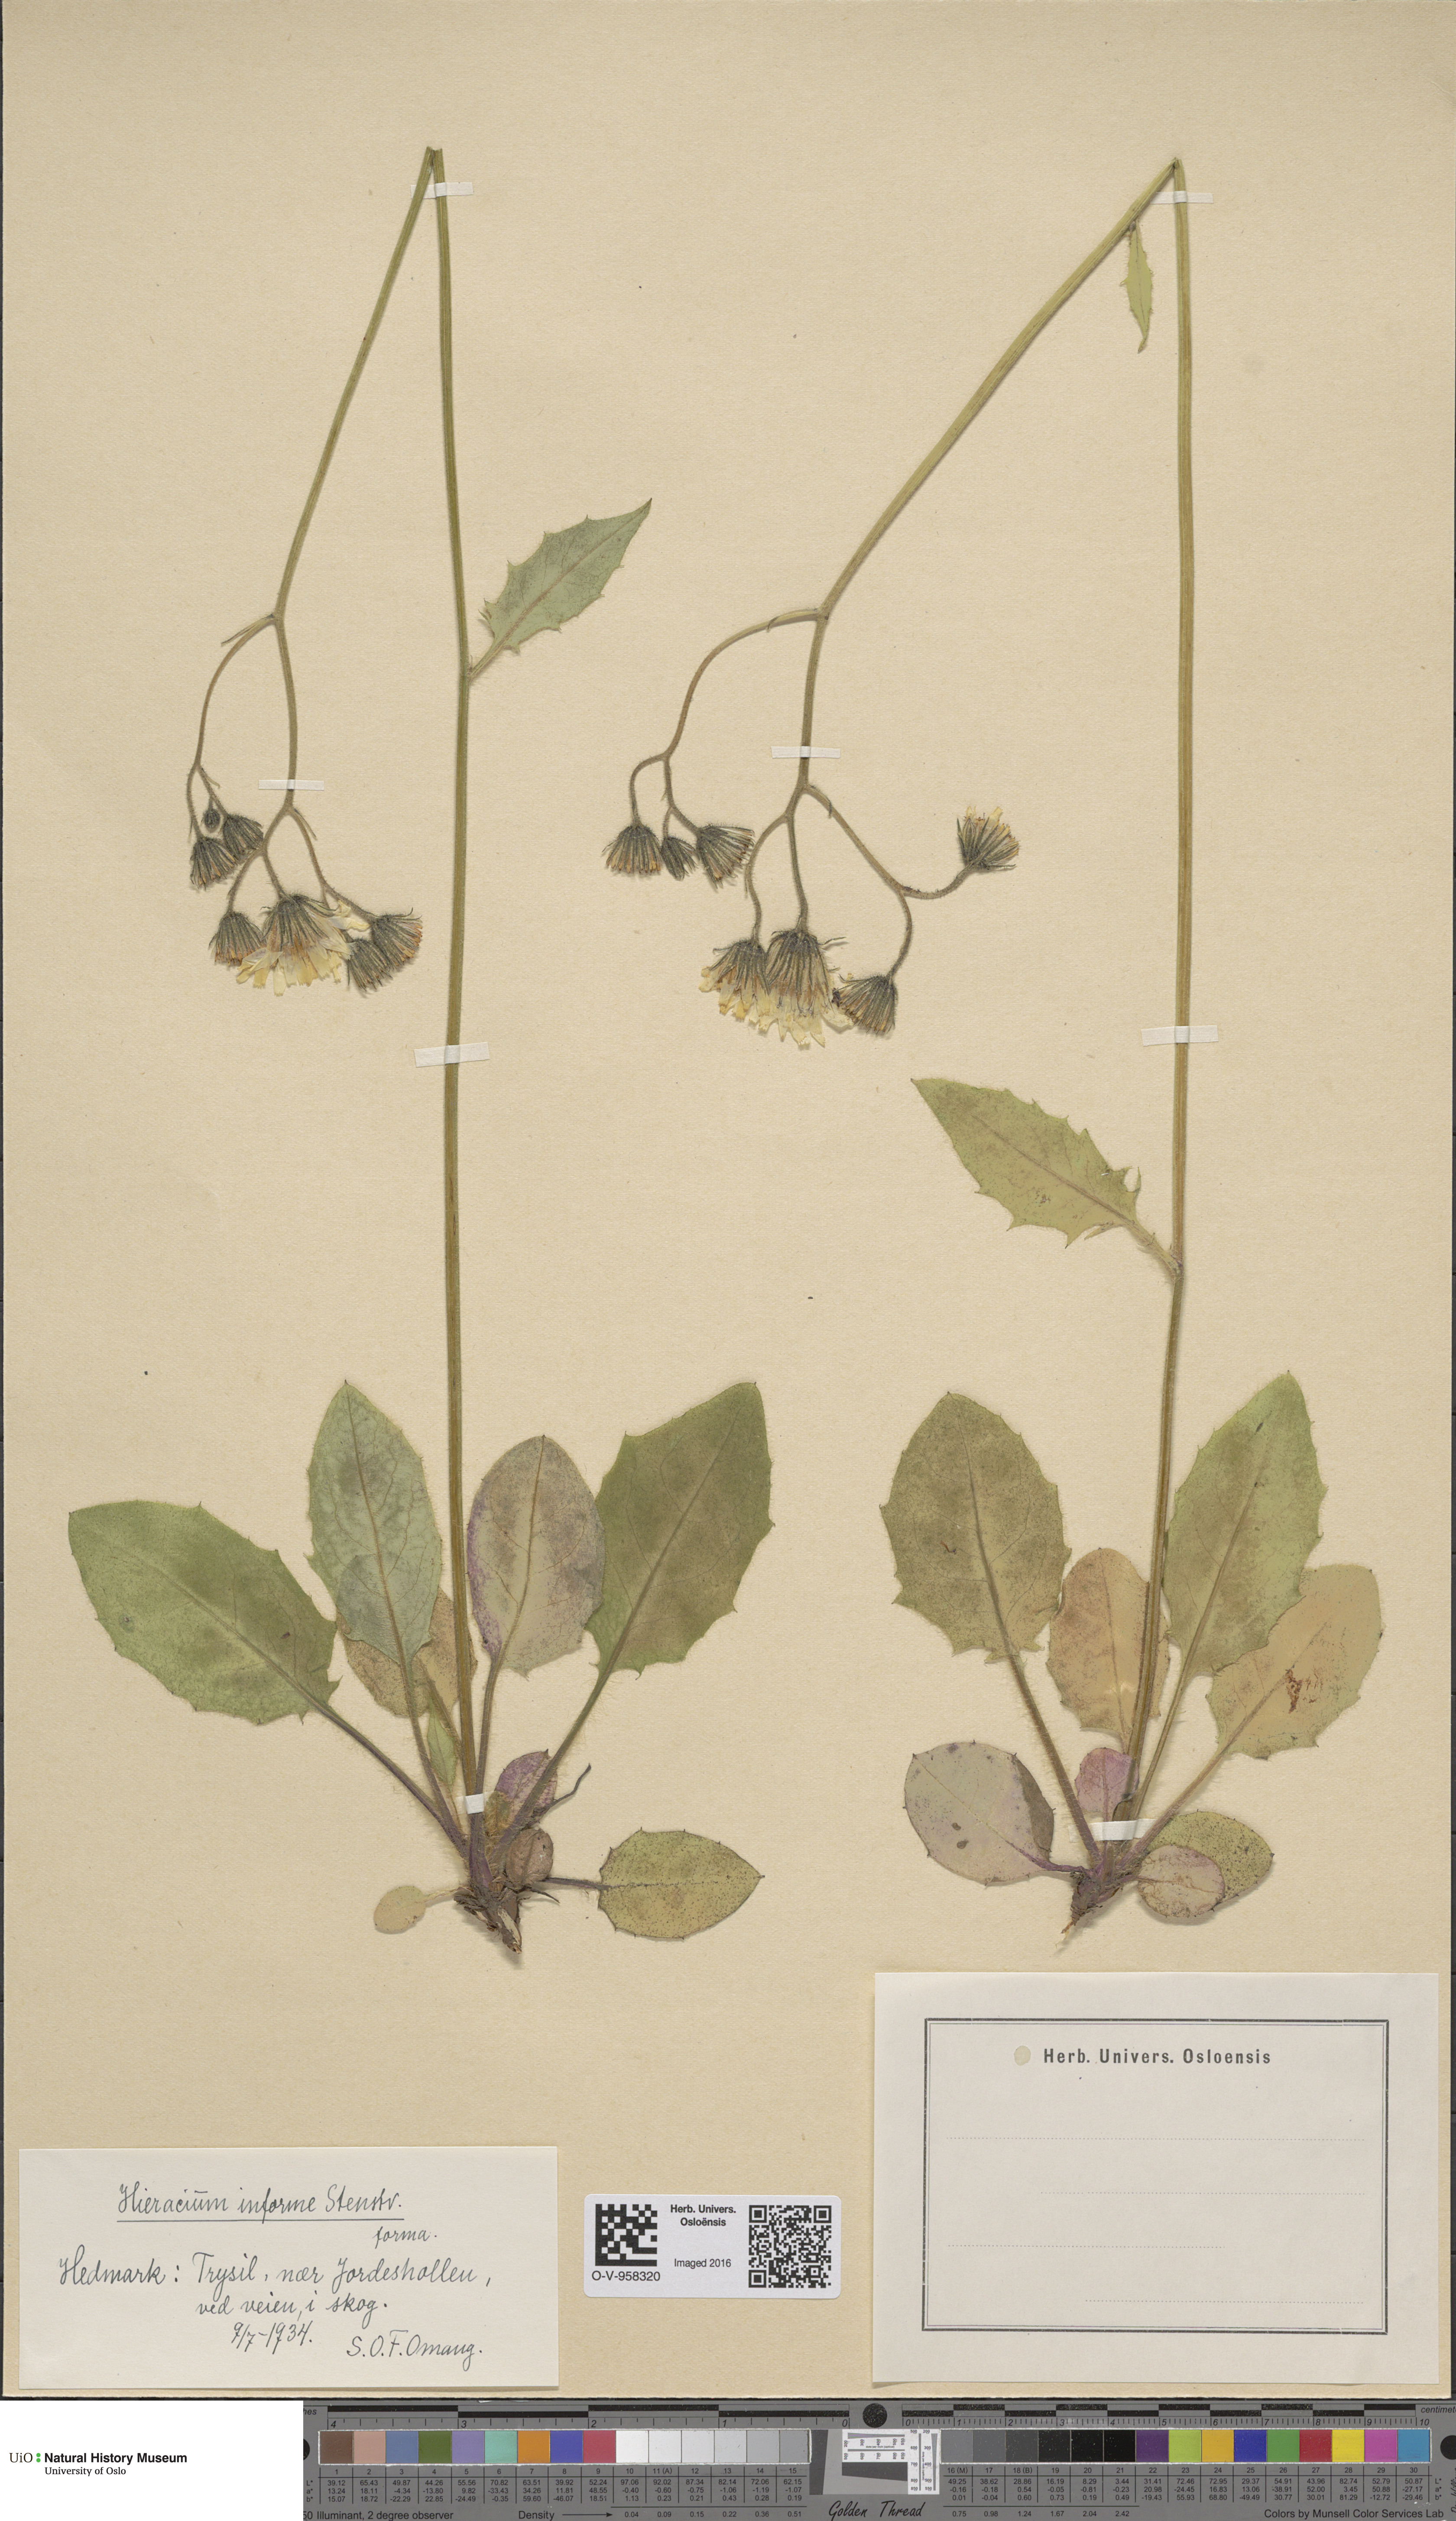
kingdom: Plantae
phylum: Tracheophyta
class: Magnoliopsida
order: Asterales
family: Asteraceae
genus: Hieracium
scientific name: Hieracium informe
